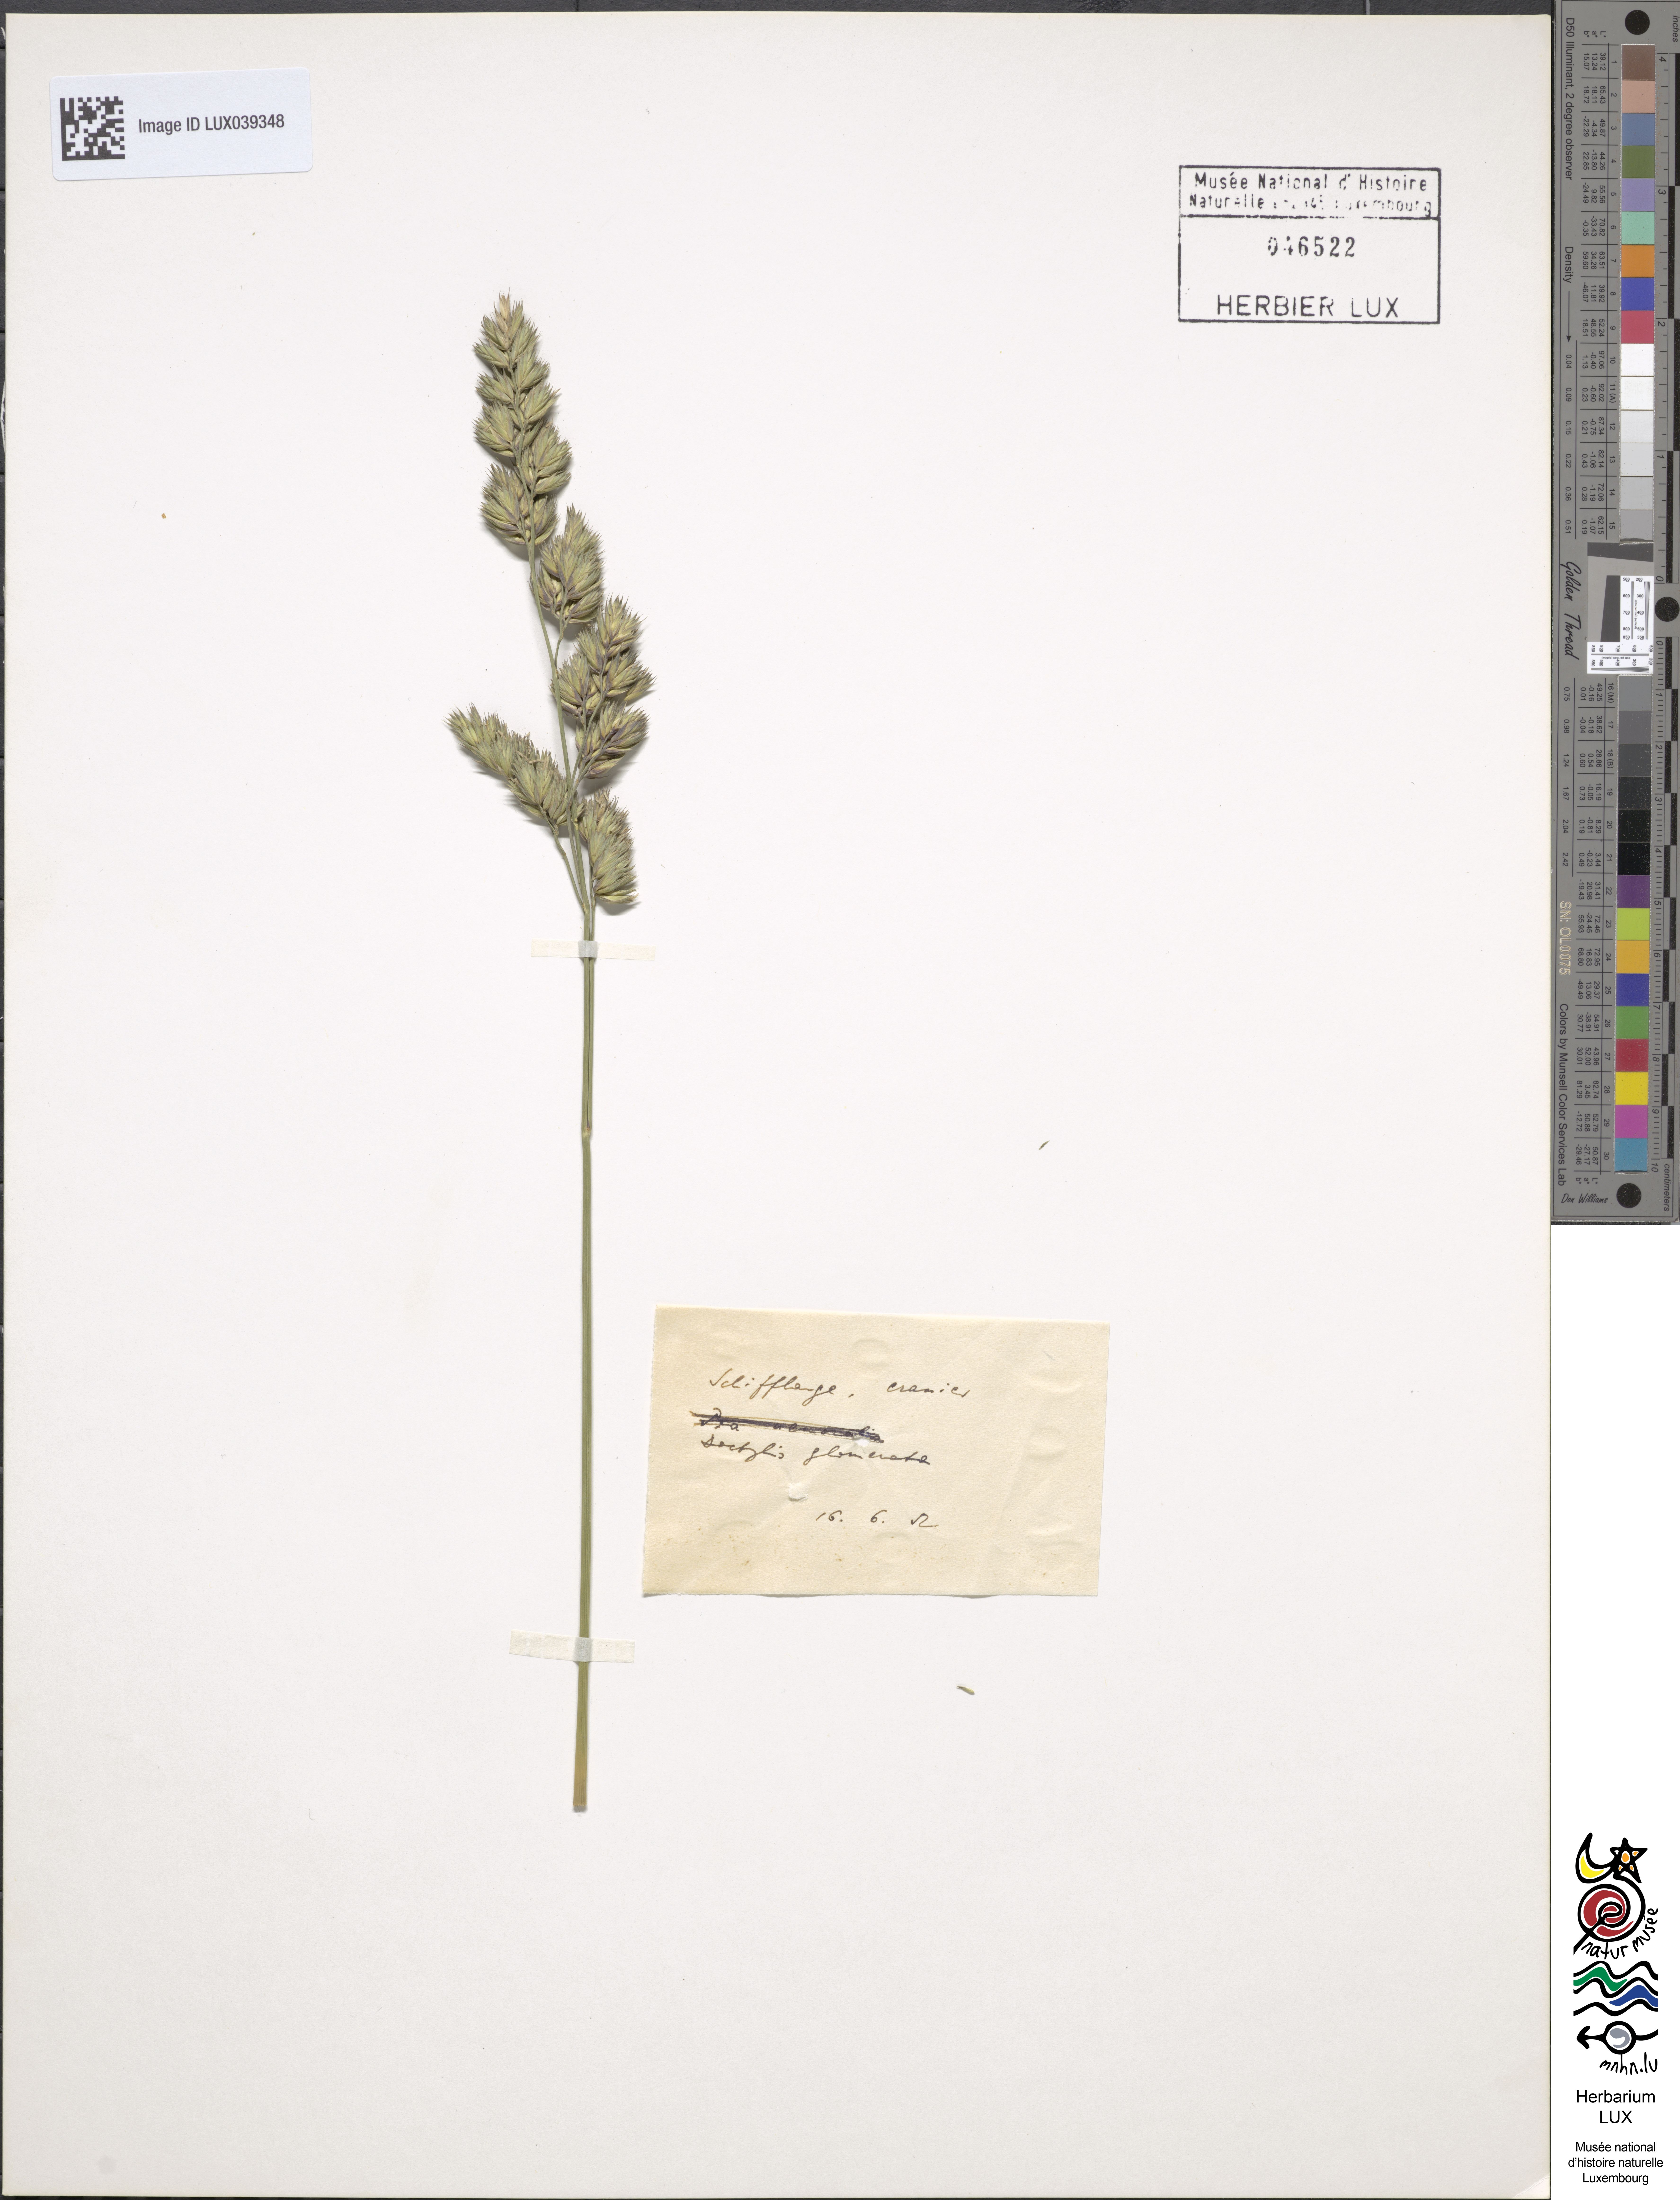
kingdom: Plantae
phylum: Tracheophyta
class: Liliopsida
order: Poales
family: Poaceae
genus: Dactylis
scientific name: Dactylis glomerata
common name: Orchardgrass
